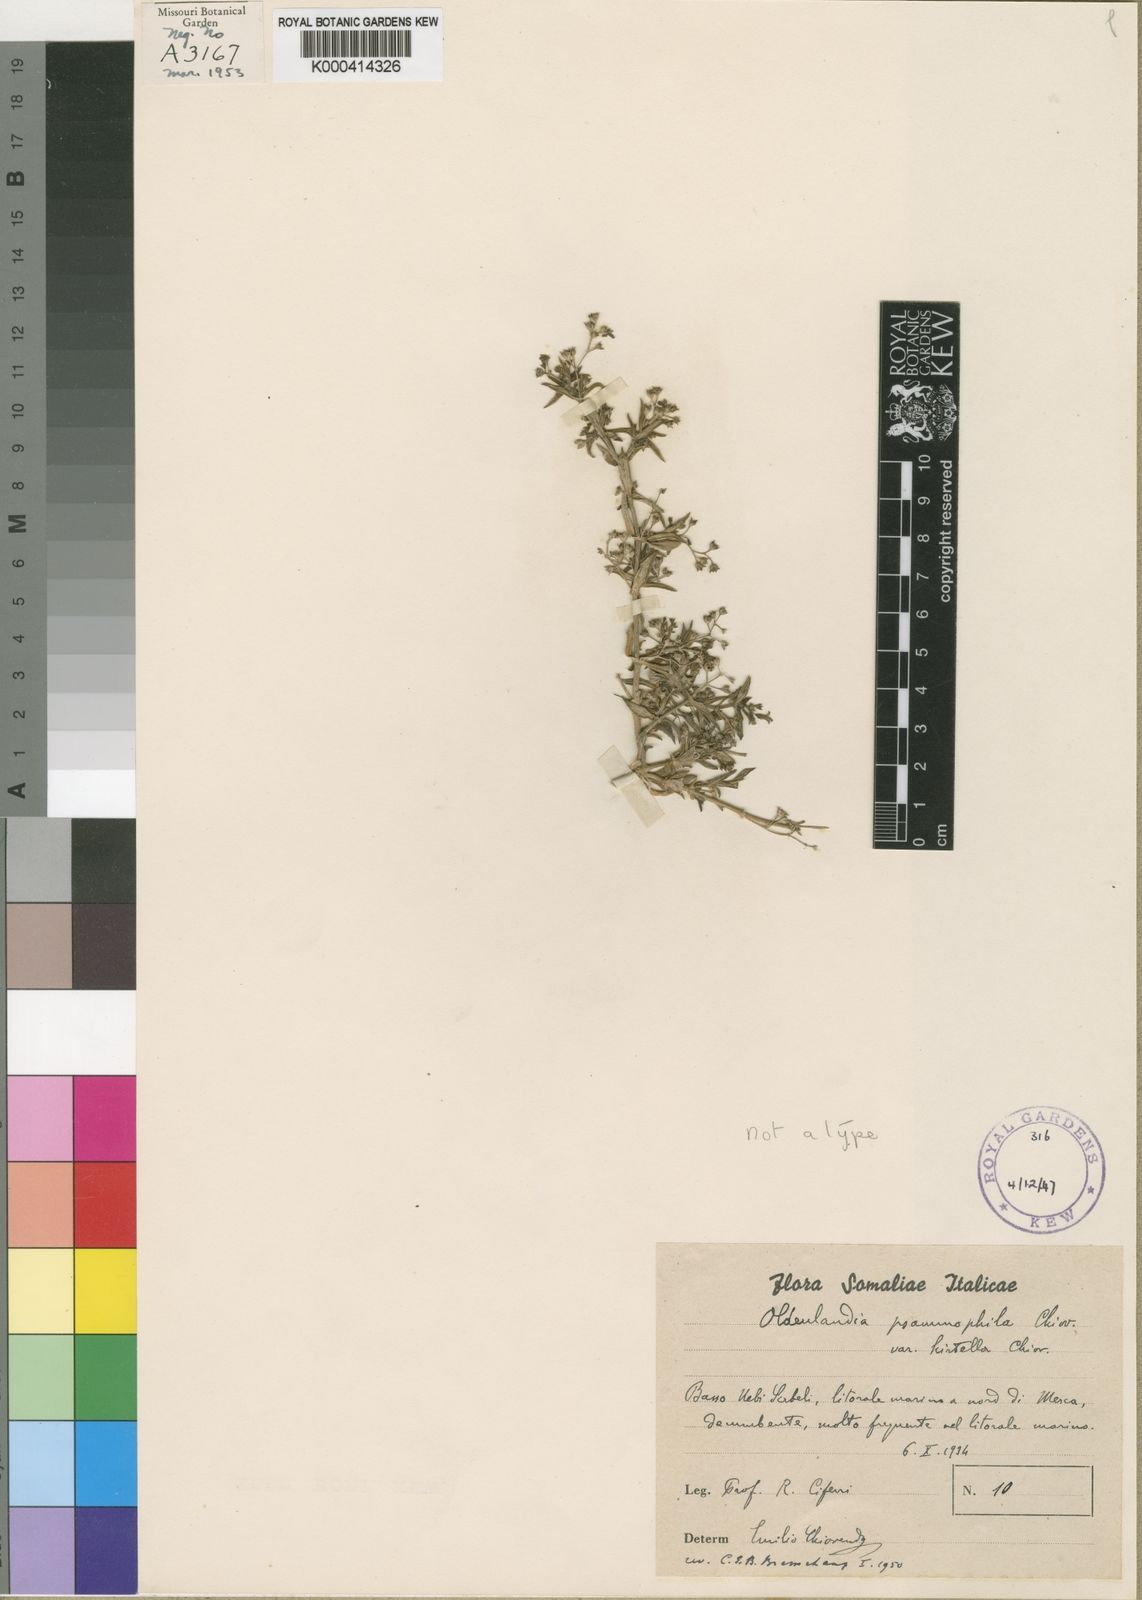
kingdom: Plantae
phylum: Tracheophyta
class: Magnoliopsida
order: Gentianales
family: Rubiaceae
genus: Oldenlandia
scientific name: Oldenlandia richardsonioides
